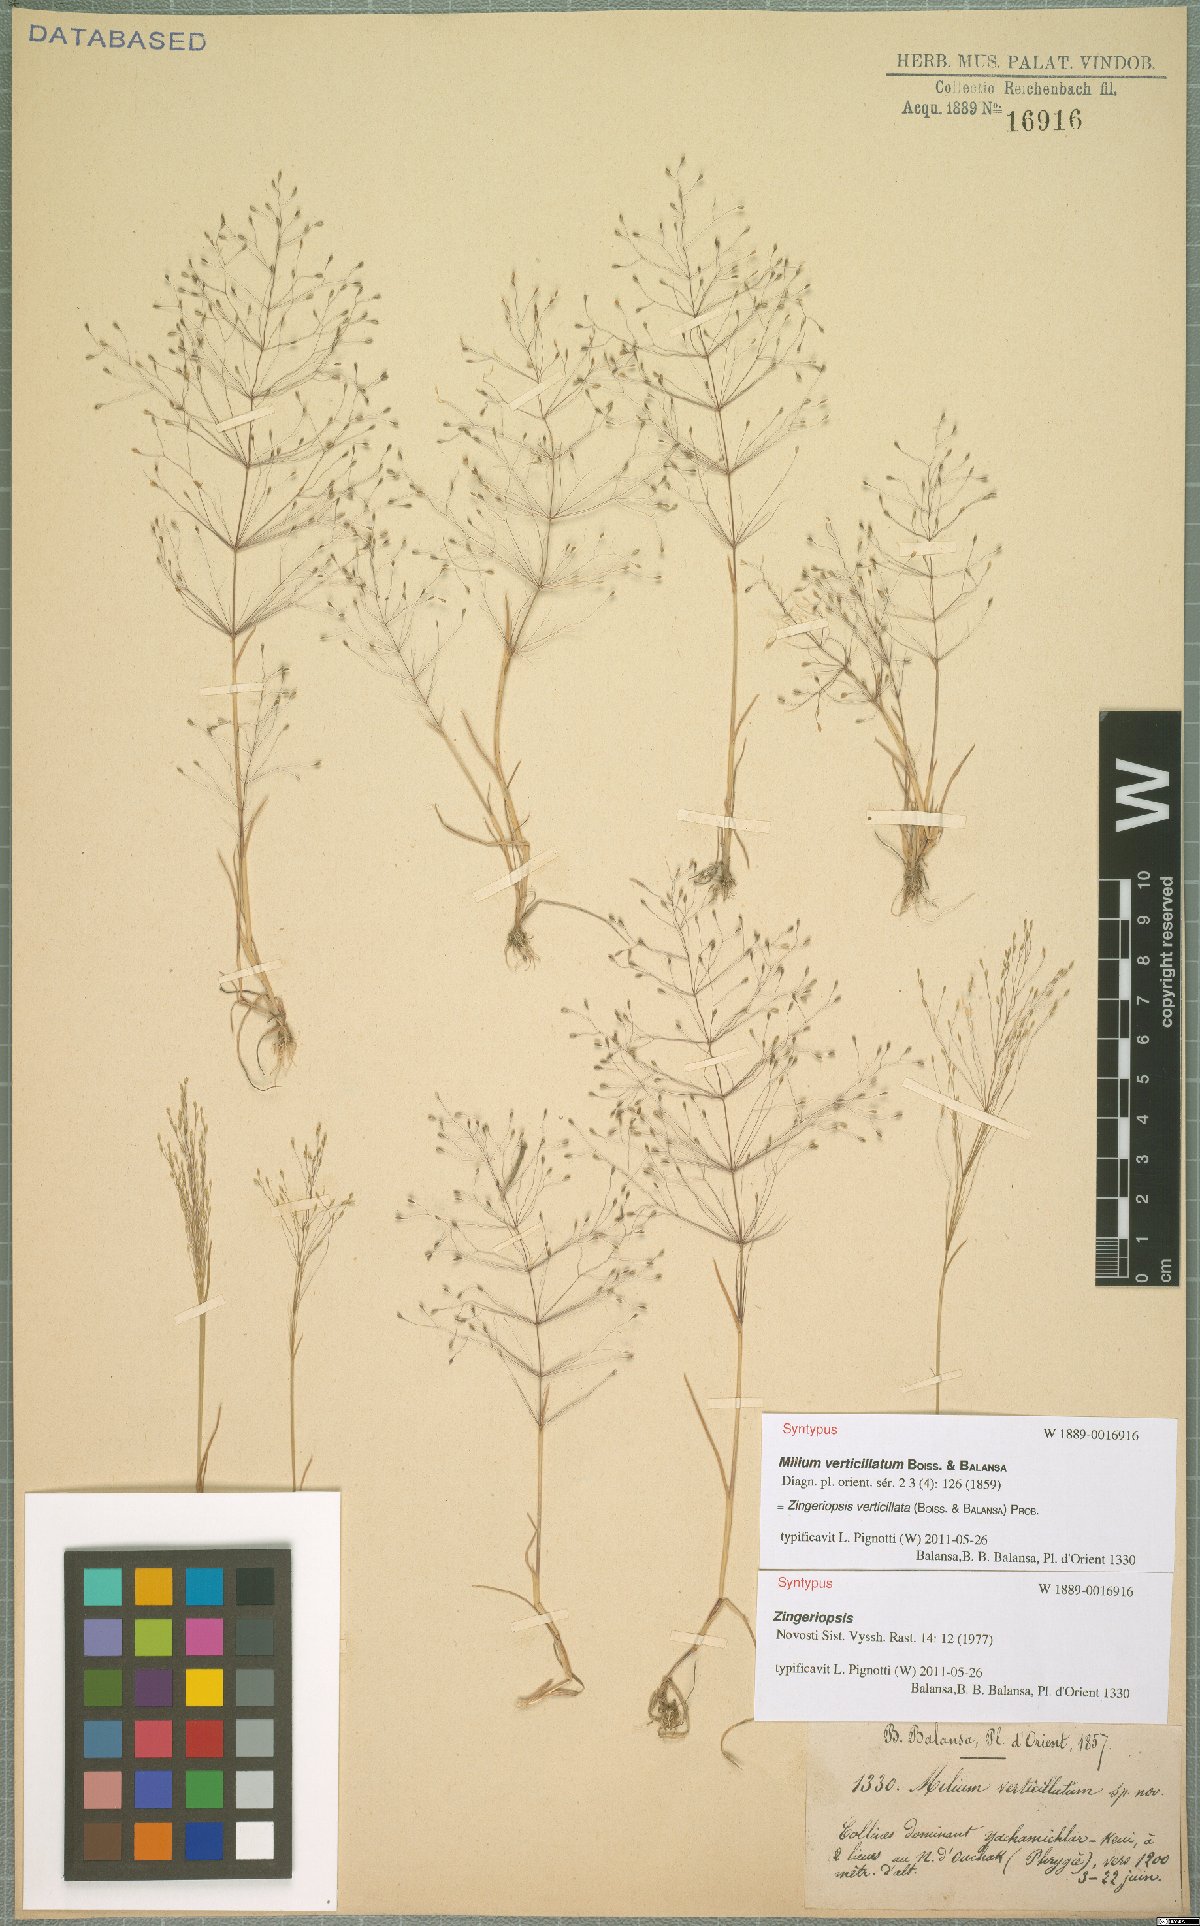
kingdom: Plantae
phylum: Tracheophyta
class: Liliopsida
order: Poales
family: Poaceae
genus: Colpodium
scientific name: Colpodium verticillatum
